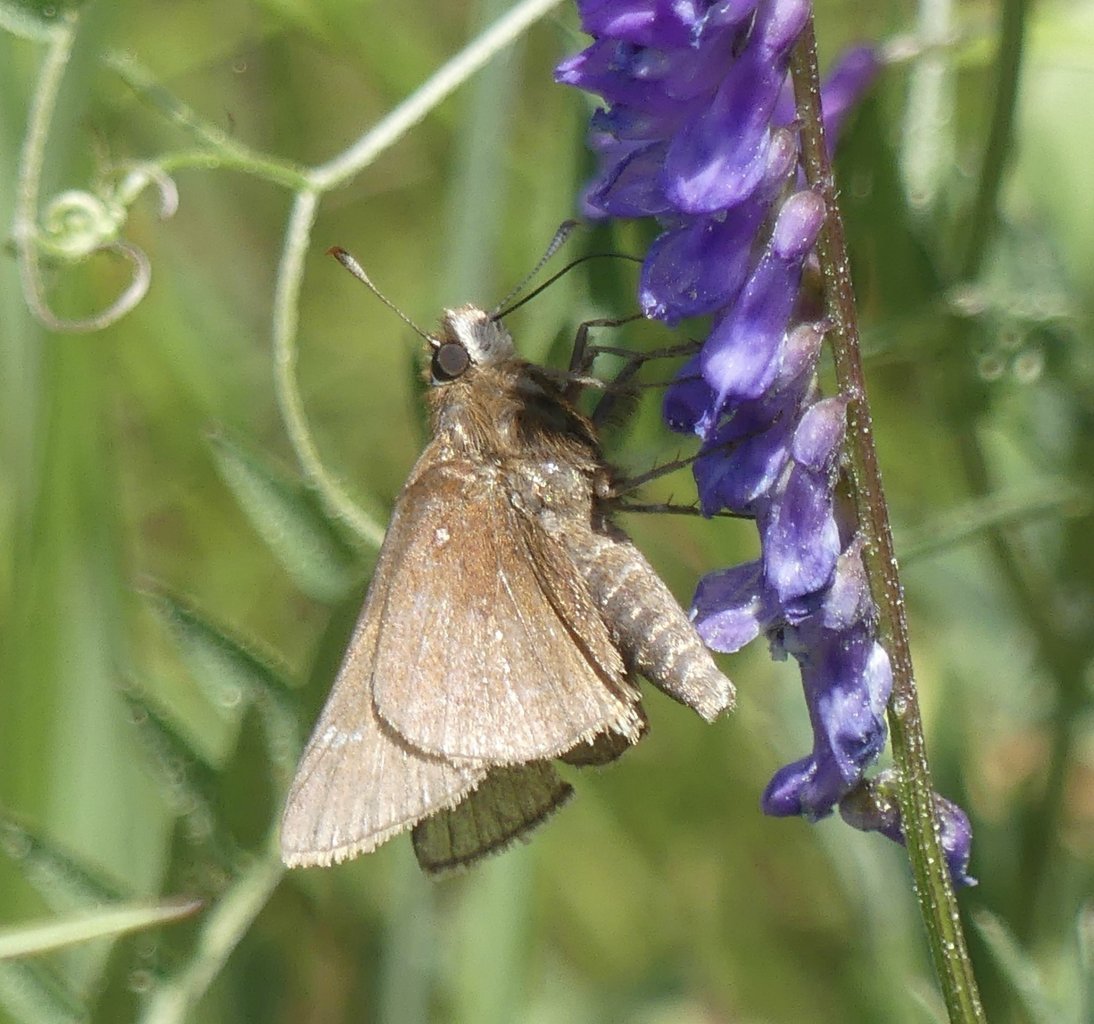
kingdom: Animalia
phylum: Arthropoda
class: Insecta
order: Lepidoptera
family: Hesperiidae
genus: Atrytonopsis
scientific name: Atrytonopsis hianna
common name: Dusted Skipper
